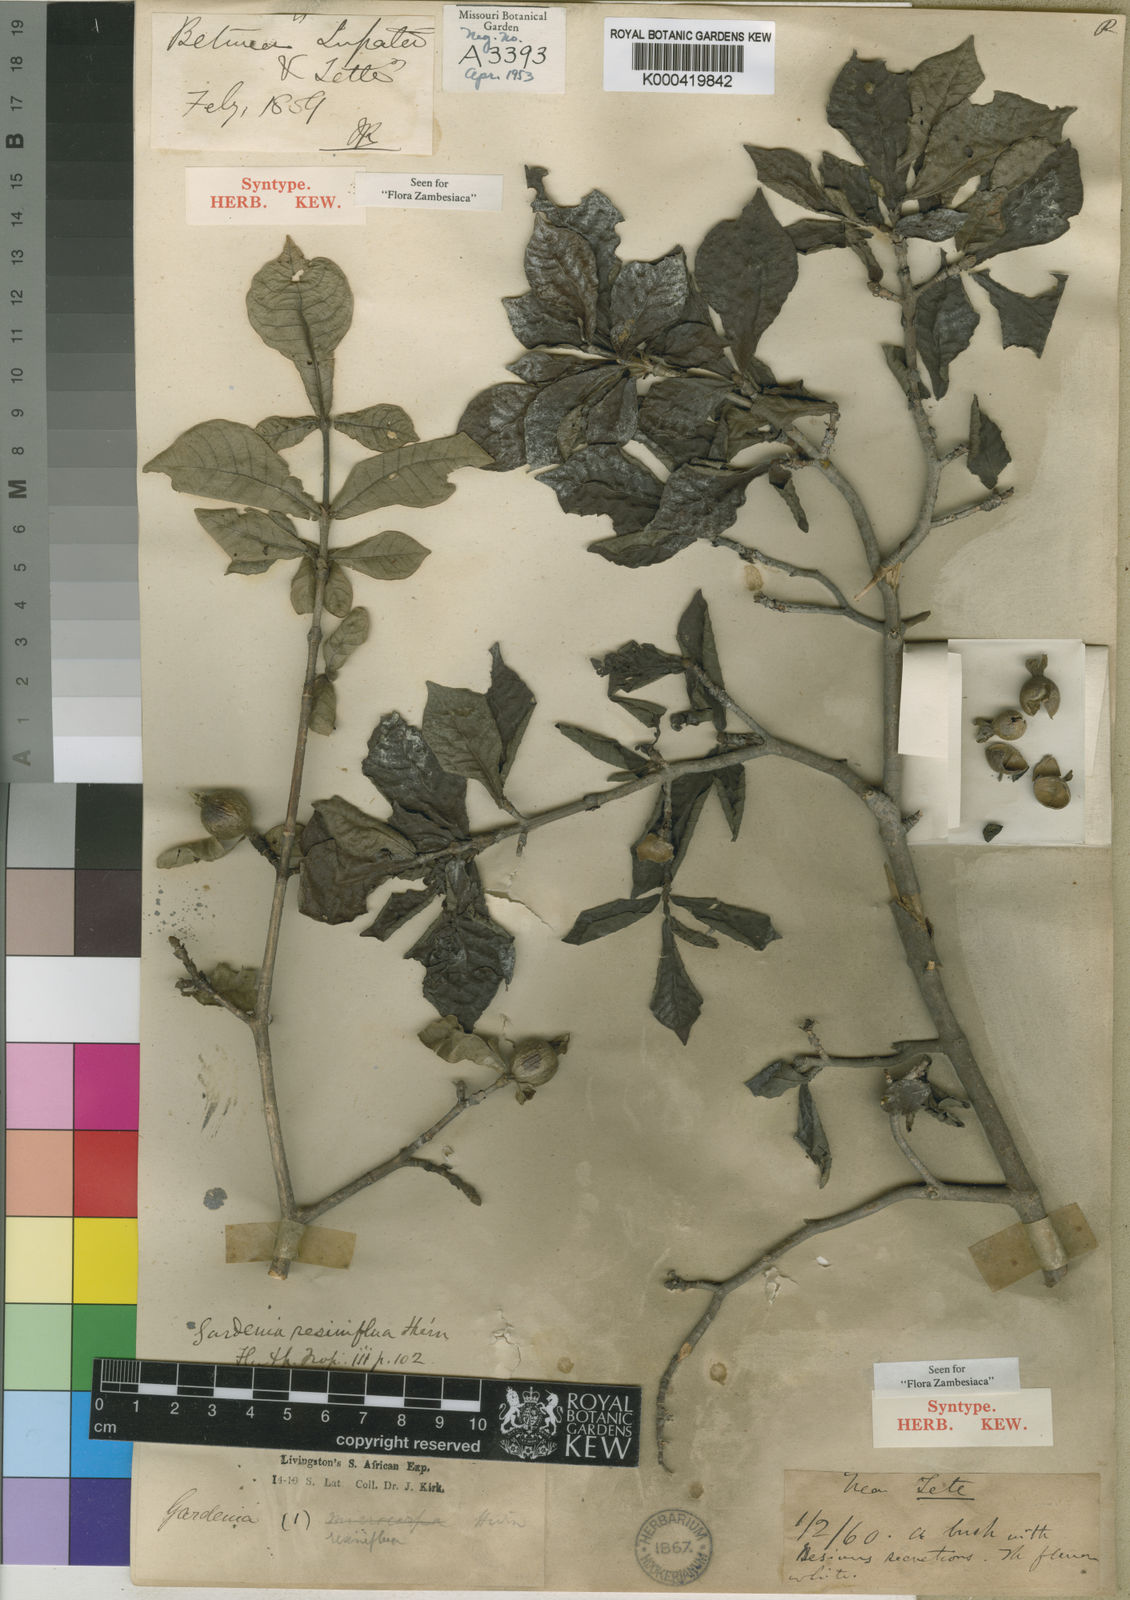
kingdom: Plantae
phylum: Tracheophyta
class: Magnoliopsida
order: Gentianales
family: Rubiaceae
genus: Gardenia
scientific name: Gardenia resiniflua
